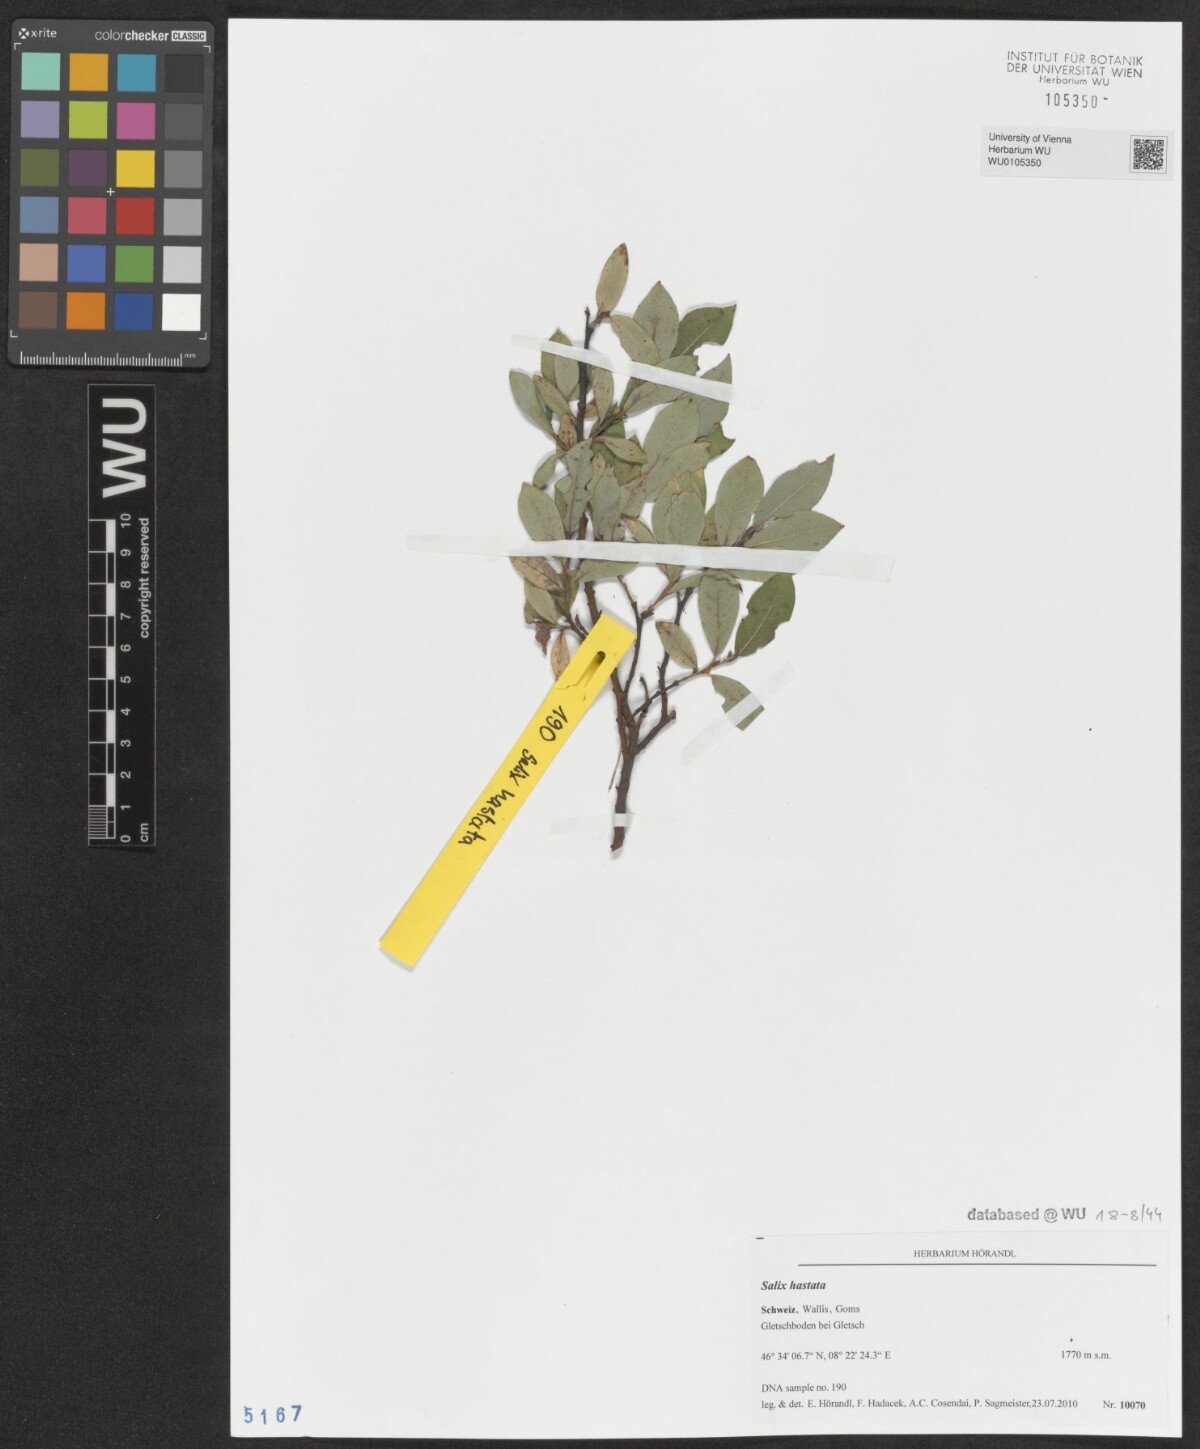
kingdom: Plantae
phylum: Tracheophyta
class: Magnoliopsida
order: Malpighiales
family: Salicaceae
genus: Salix
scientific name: Salix hastata
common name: Halberd willow
